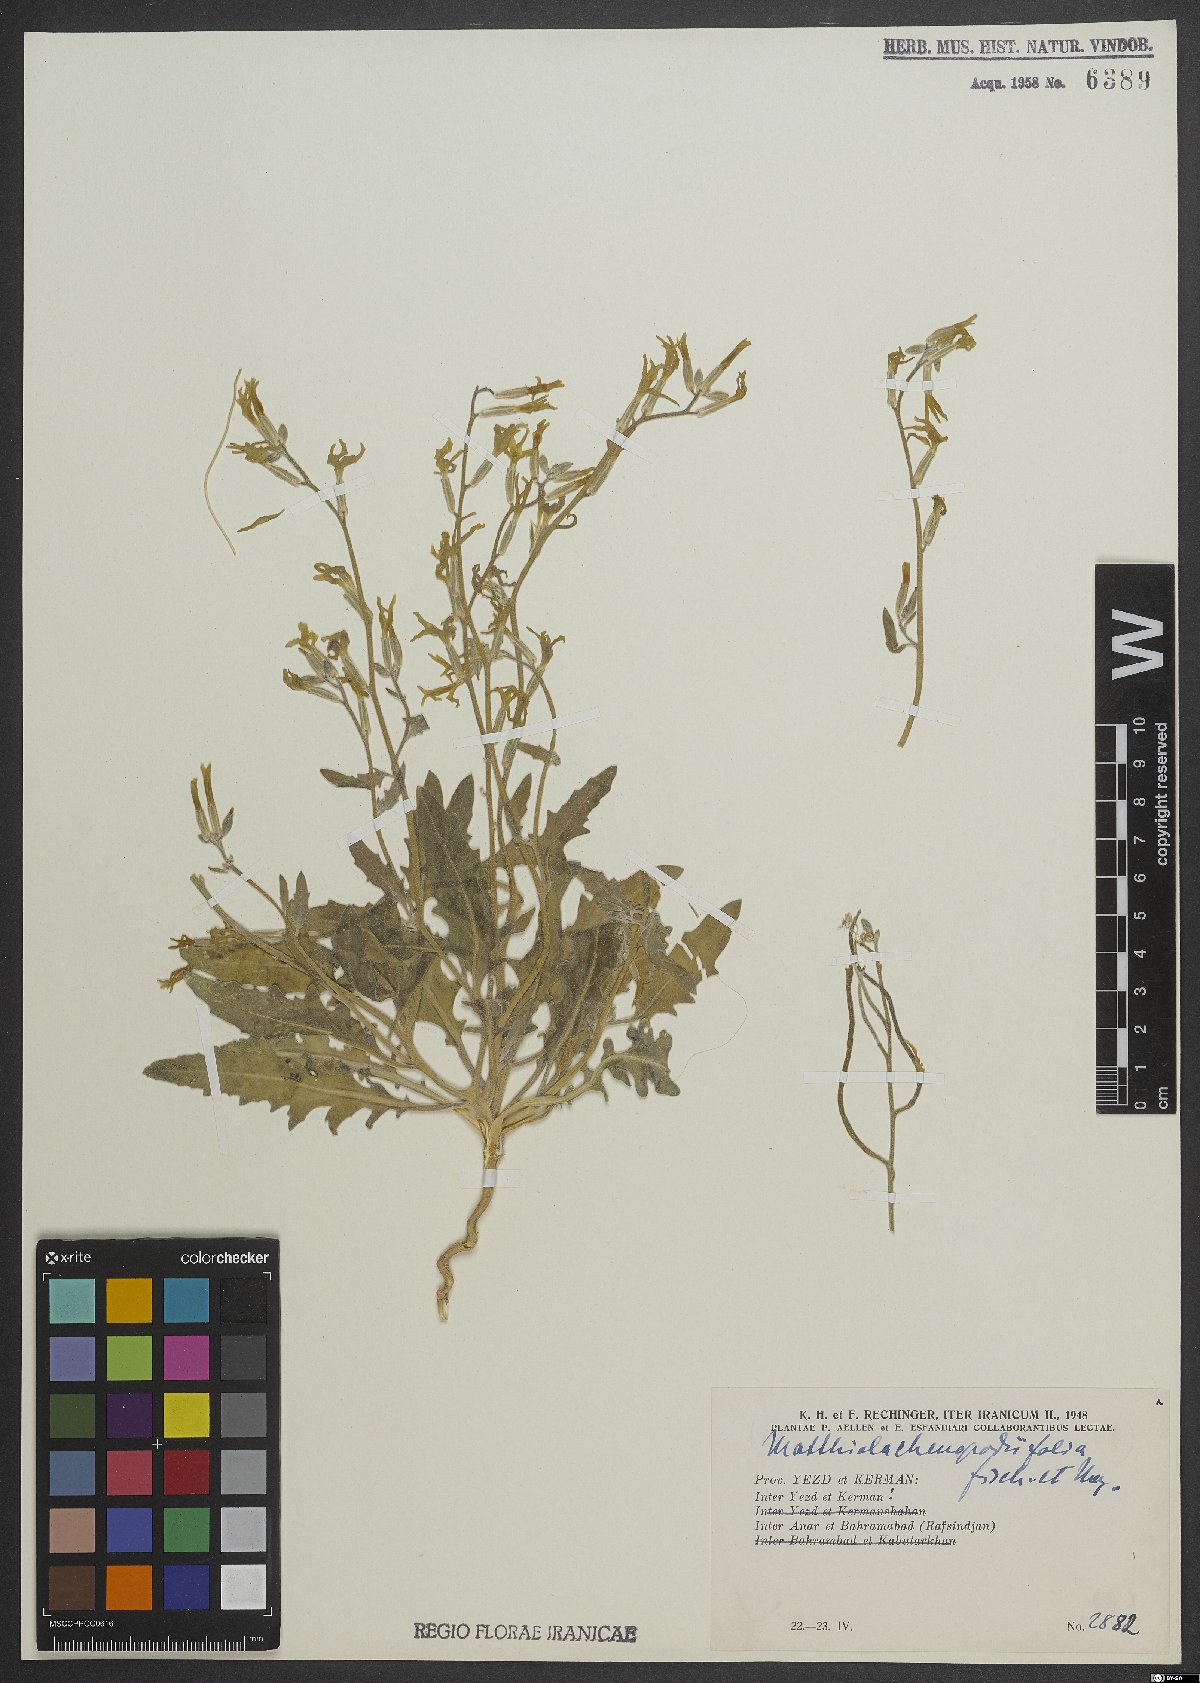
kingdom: Plantae
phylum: Tracheophyta
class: Magnoliopsida
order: Brassicales
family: Brassicaceae
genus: Matthiola
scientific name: Matthiola chenopodiifolia
